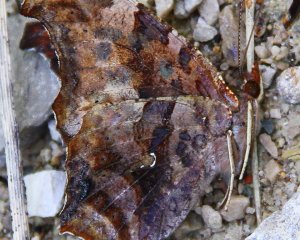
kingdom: Animalia
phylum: Arthropoda
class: Insecta
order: Lepidoptera
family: Nymphalidae
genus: Polygonia
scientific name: Polygonia interrogationis
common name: Question Mark
